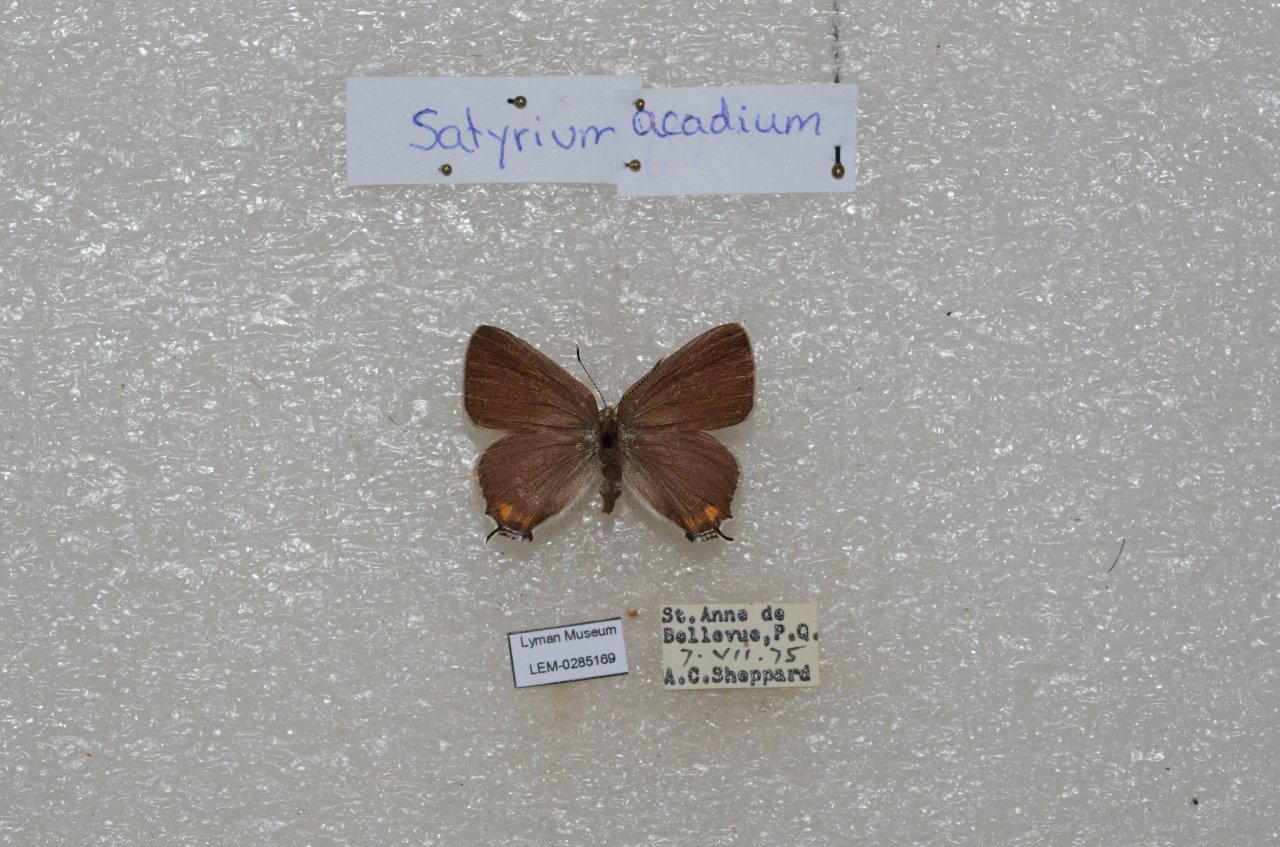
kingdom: Animalia
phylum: Arthropoda
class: Insecta
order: Lepidoptera
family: Lycaenidae
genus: Strymon
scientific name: Strymon acadica
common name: Acadian Hairstreak
